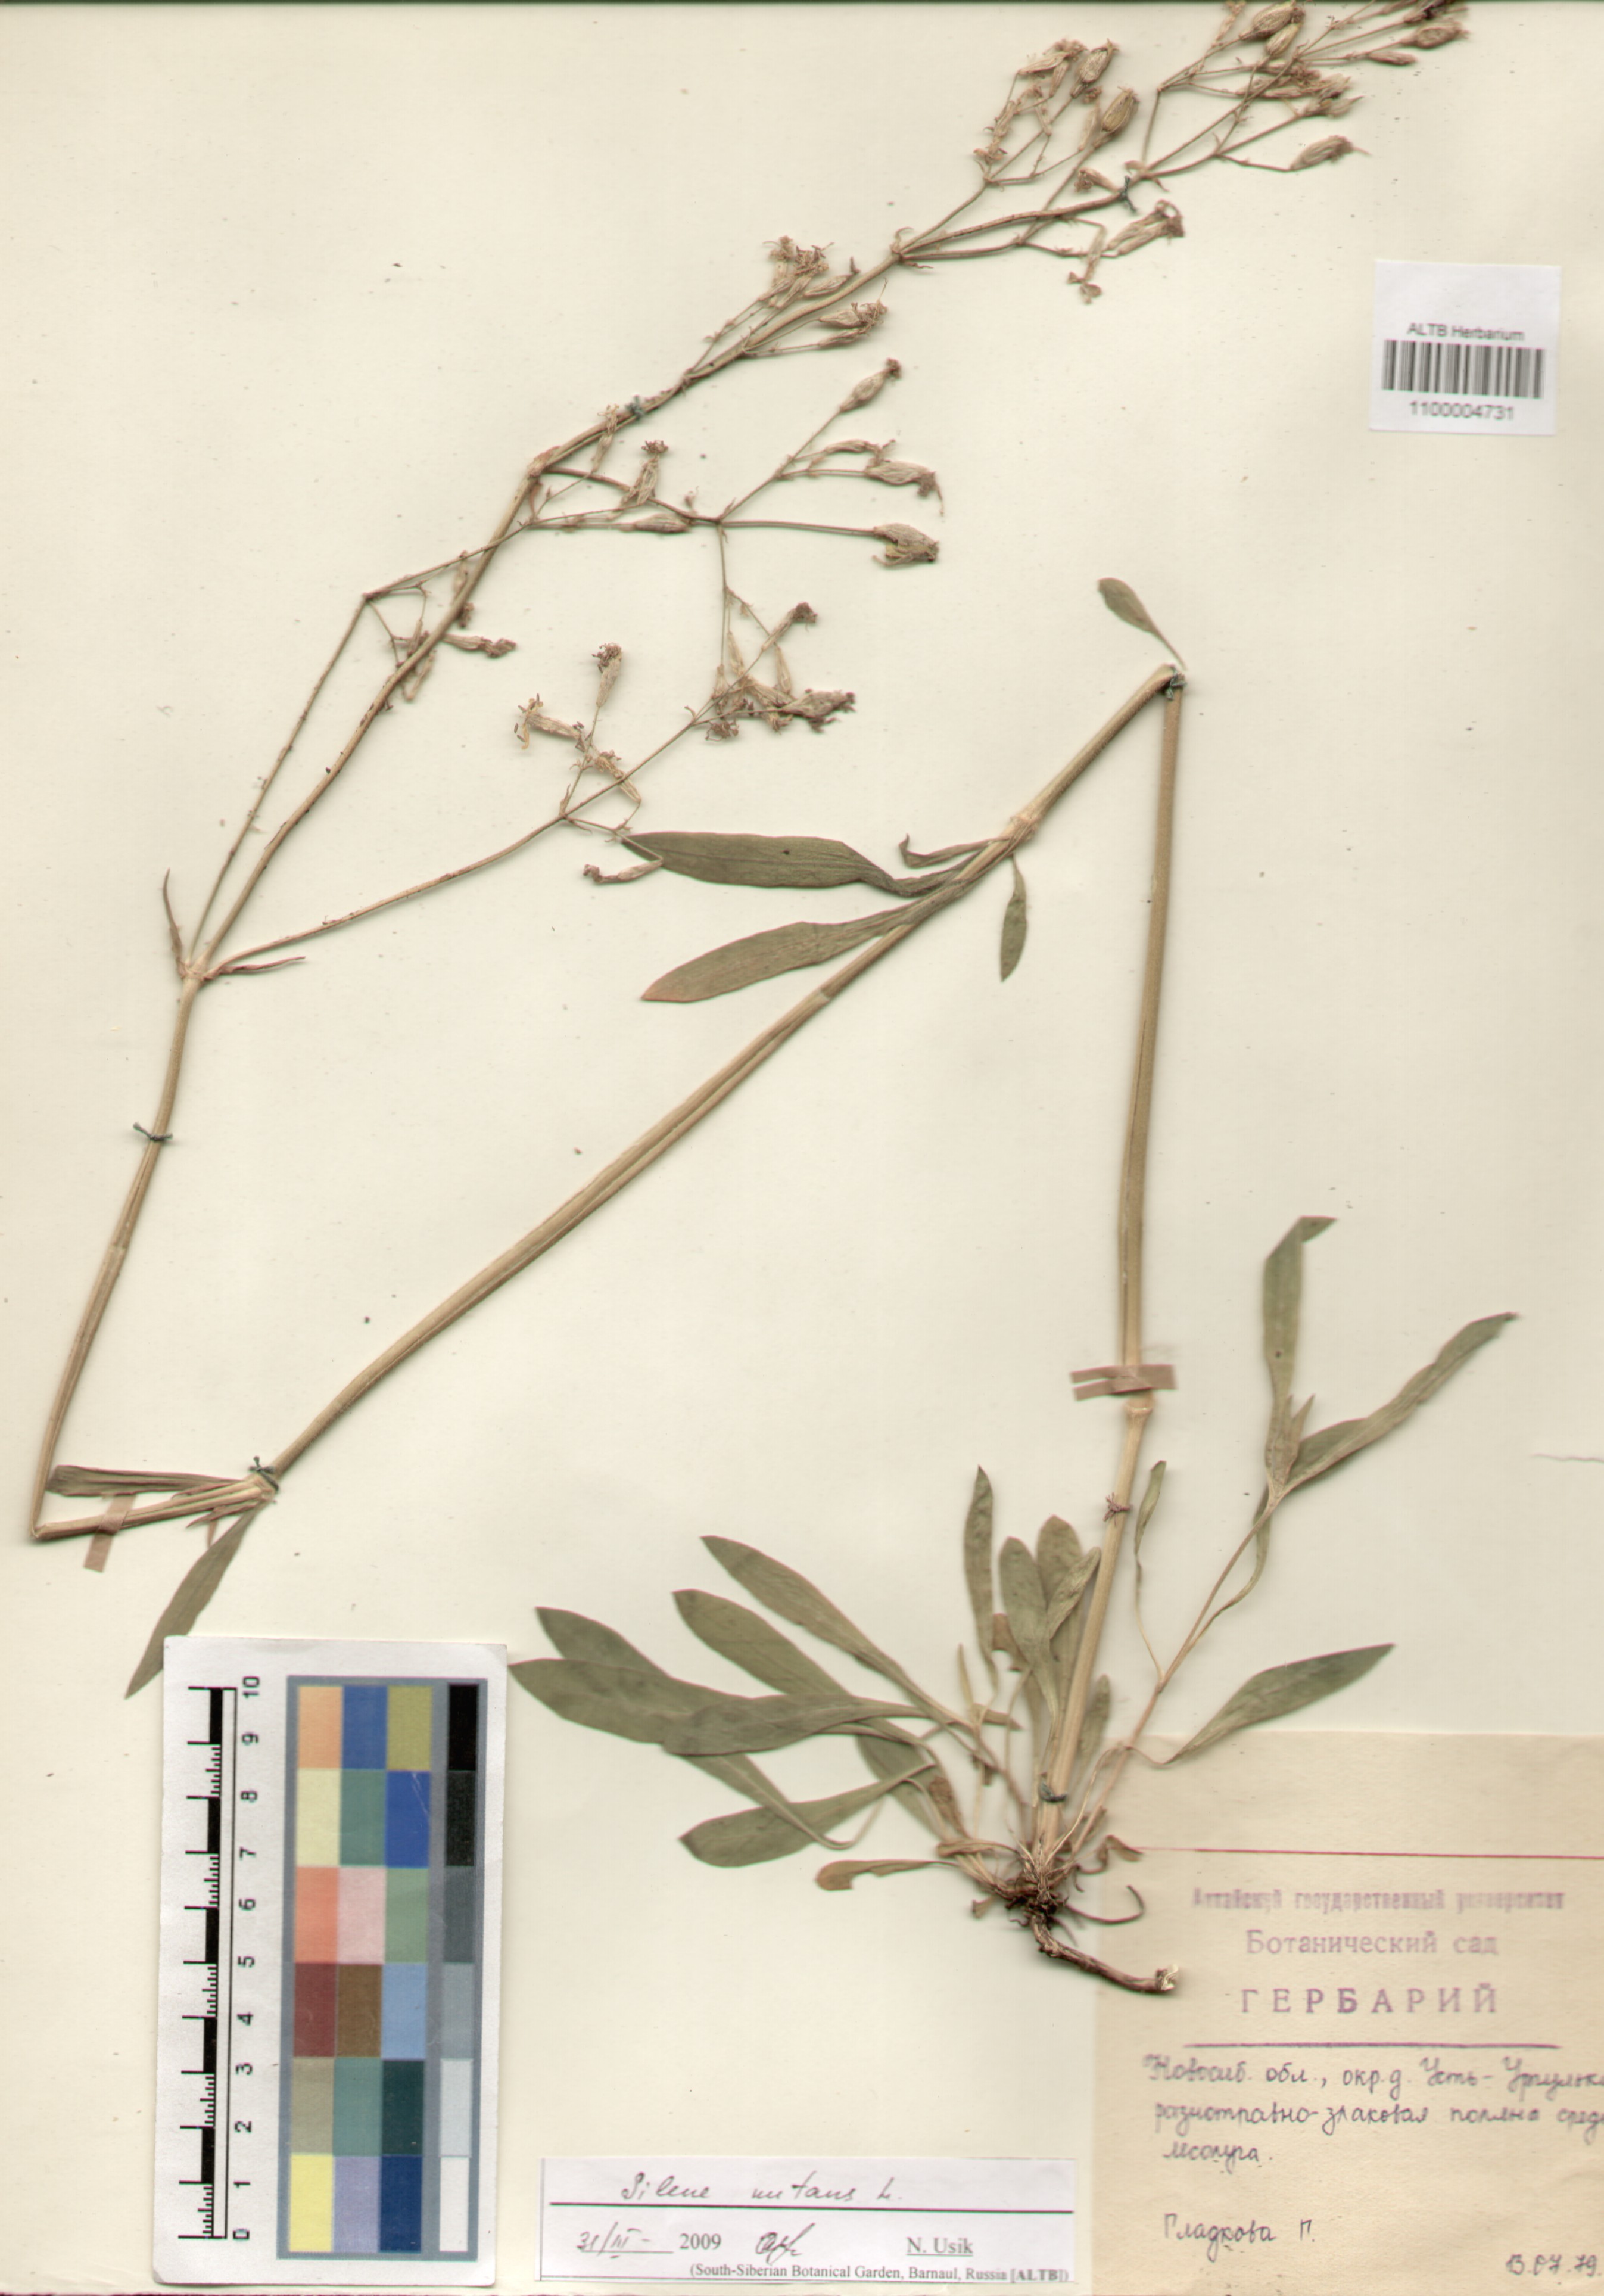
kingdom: Plantae
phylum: Tracheophyta
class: Magnoliopsida
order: Caryophyllales
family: Caryophyllaceae
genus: Silene
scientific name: Silene nutans
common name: Nottingham catchfly
